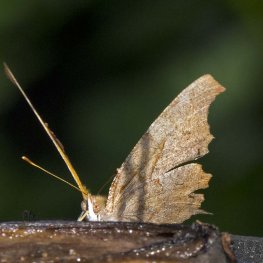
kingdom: Animalia
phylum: Arthropoda
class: Insecta
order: Lepidoptera
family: Nymphalidae
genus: Polygonia
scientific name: Polygonia interrogationis
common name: Question Mark
